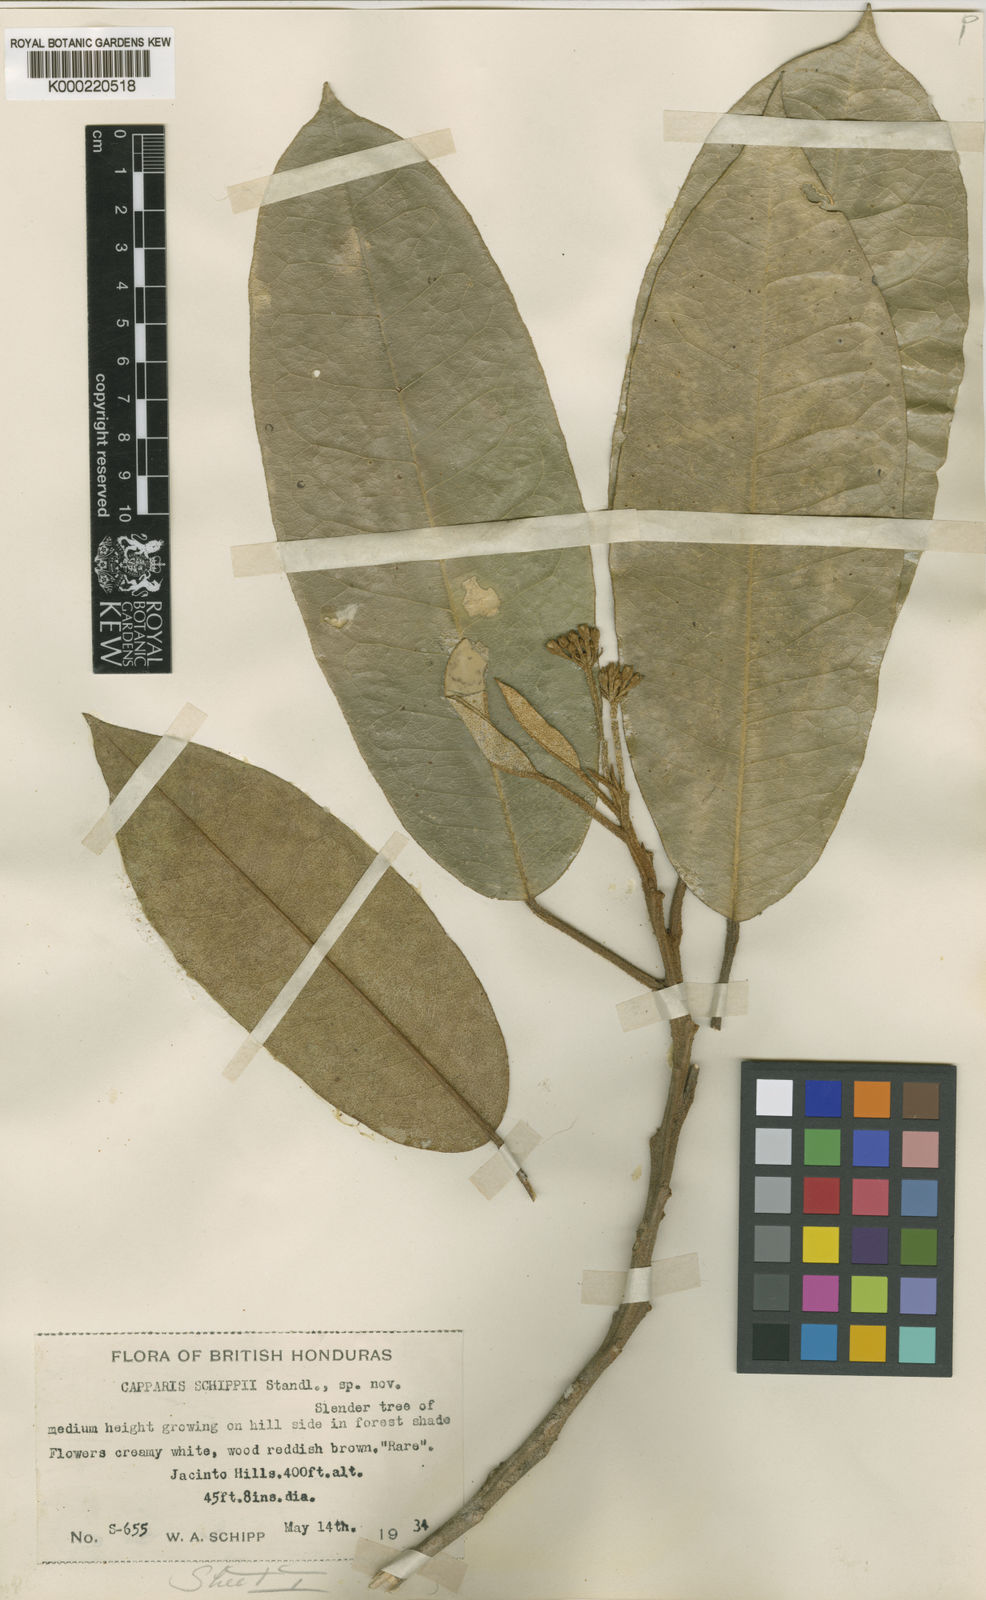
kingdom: Plantae
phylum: Tracheophyta
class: Magnoliopsida
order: Brassicales
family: Capparaceae
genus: Capparis
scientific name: Capparis
